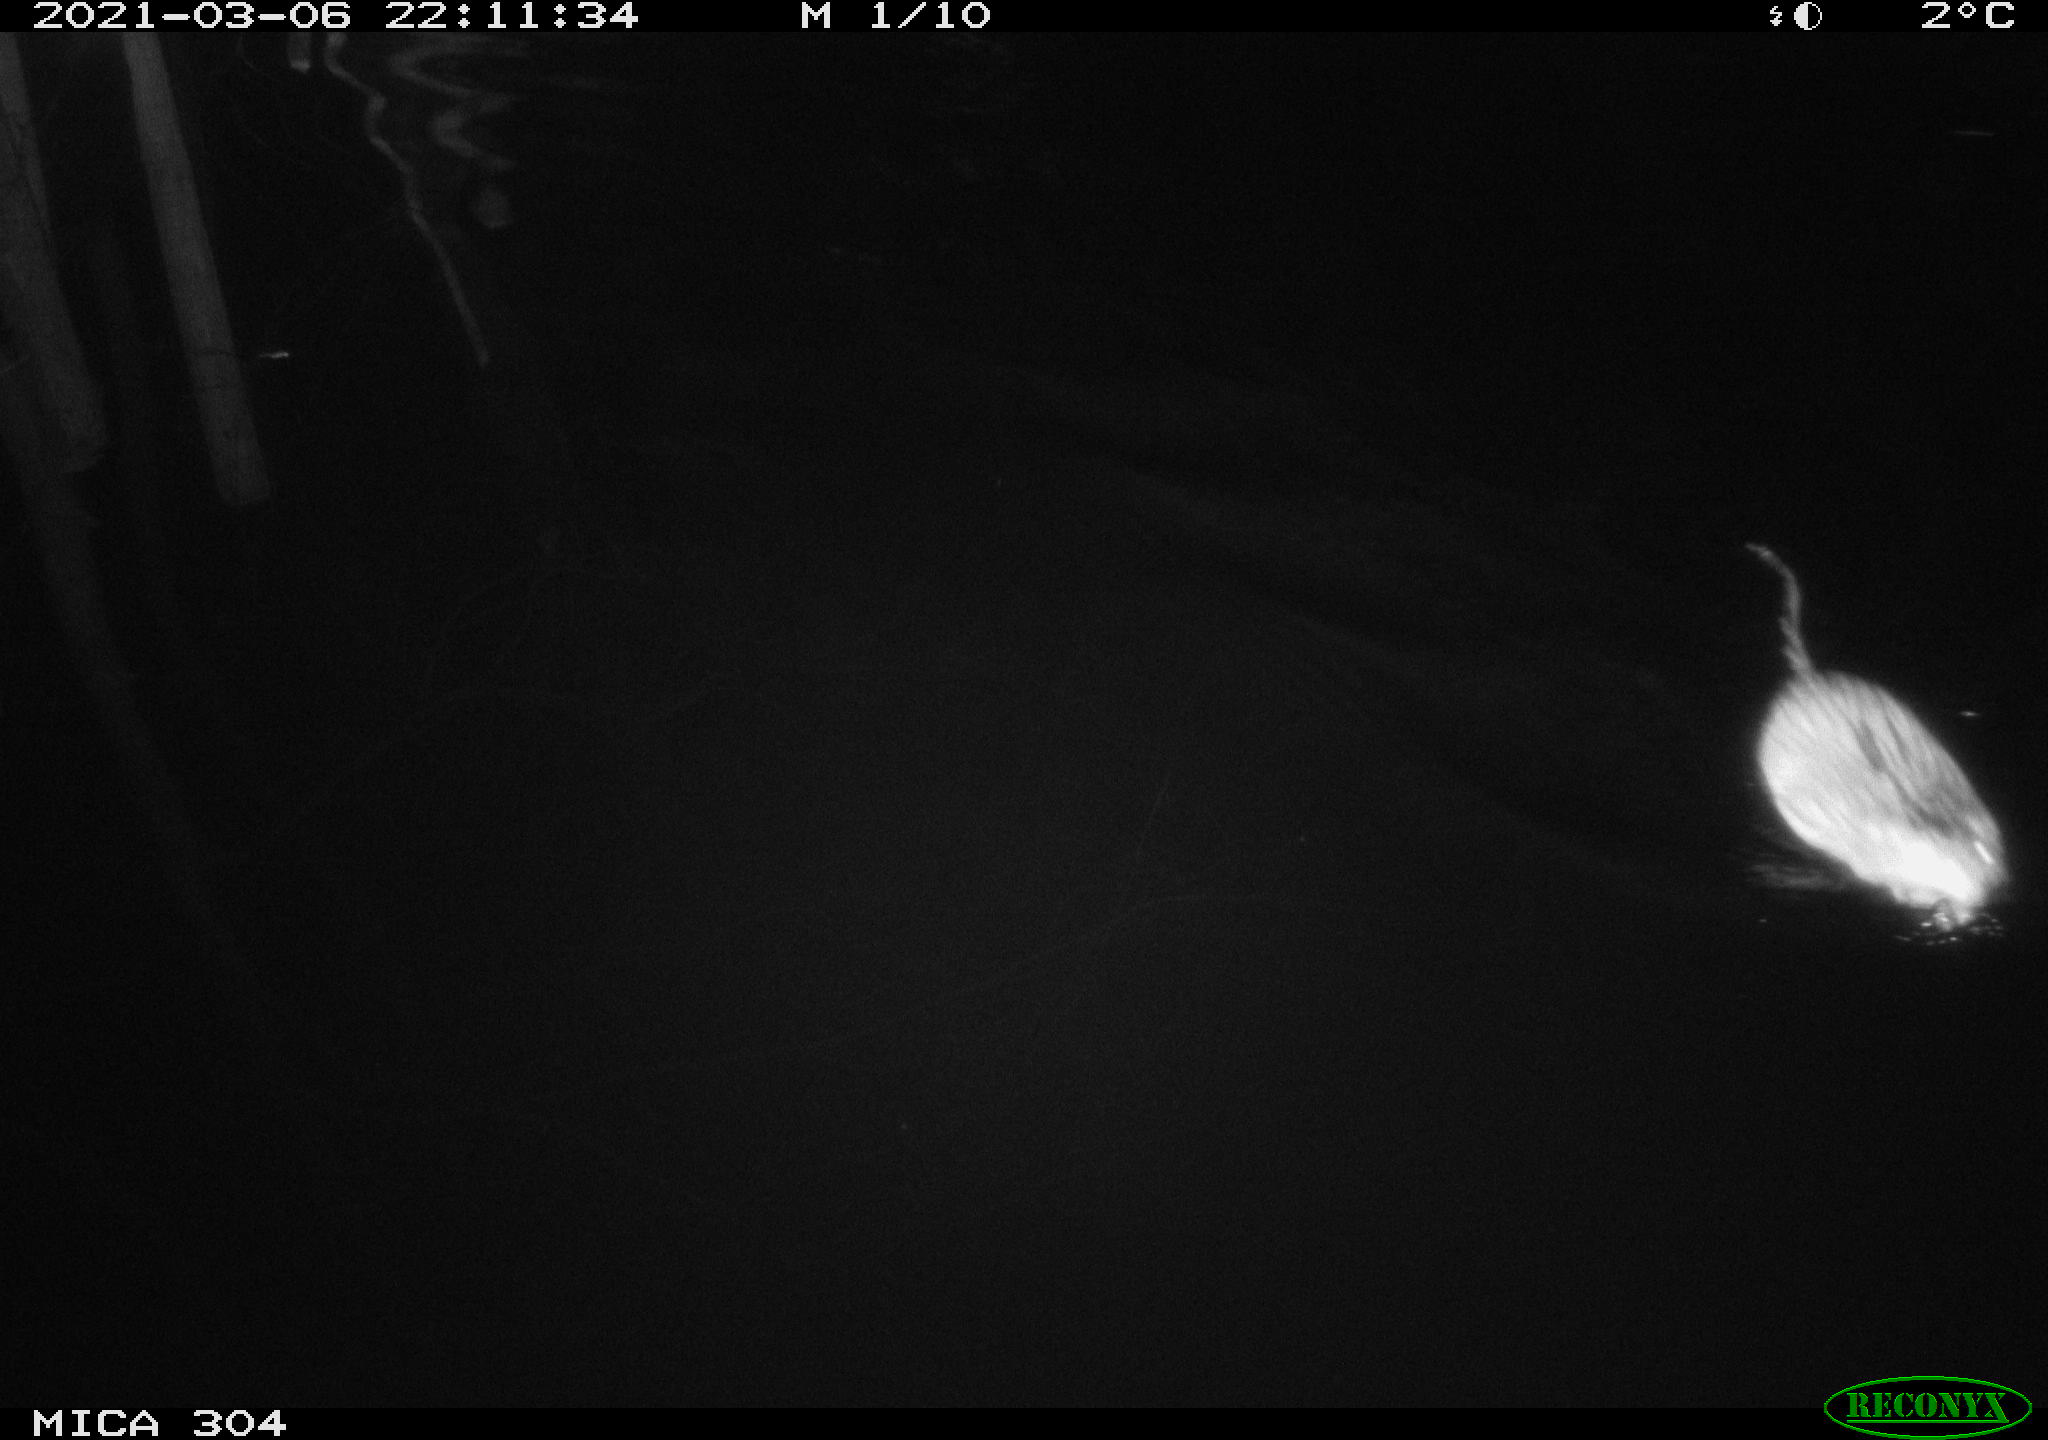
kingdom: Animalia
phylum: Chordata
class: Mammalia
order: Rodentia
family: Cricetidae
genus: Ondatra
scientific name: Ondatra zibethicus
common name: Muskrat
